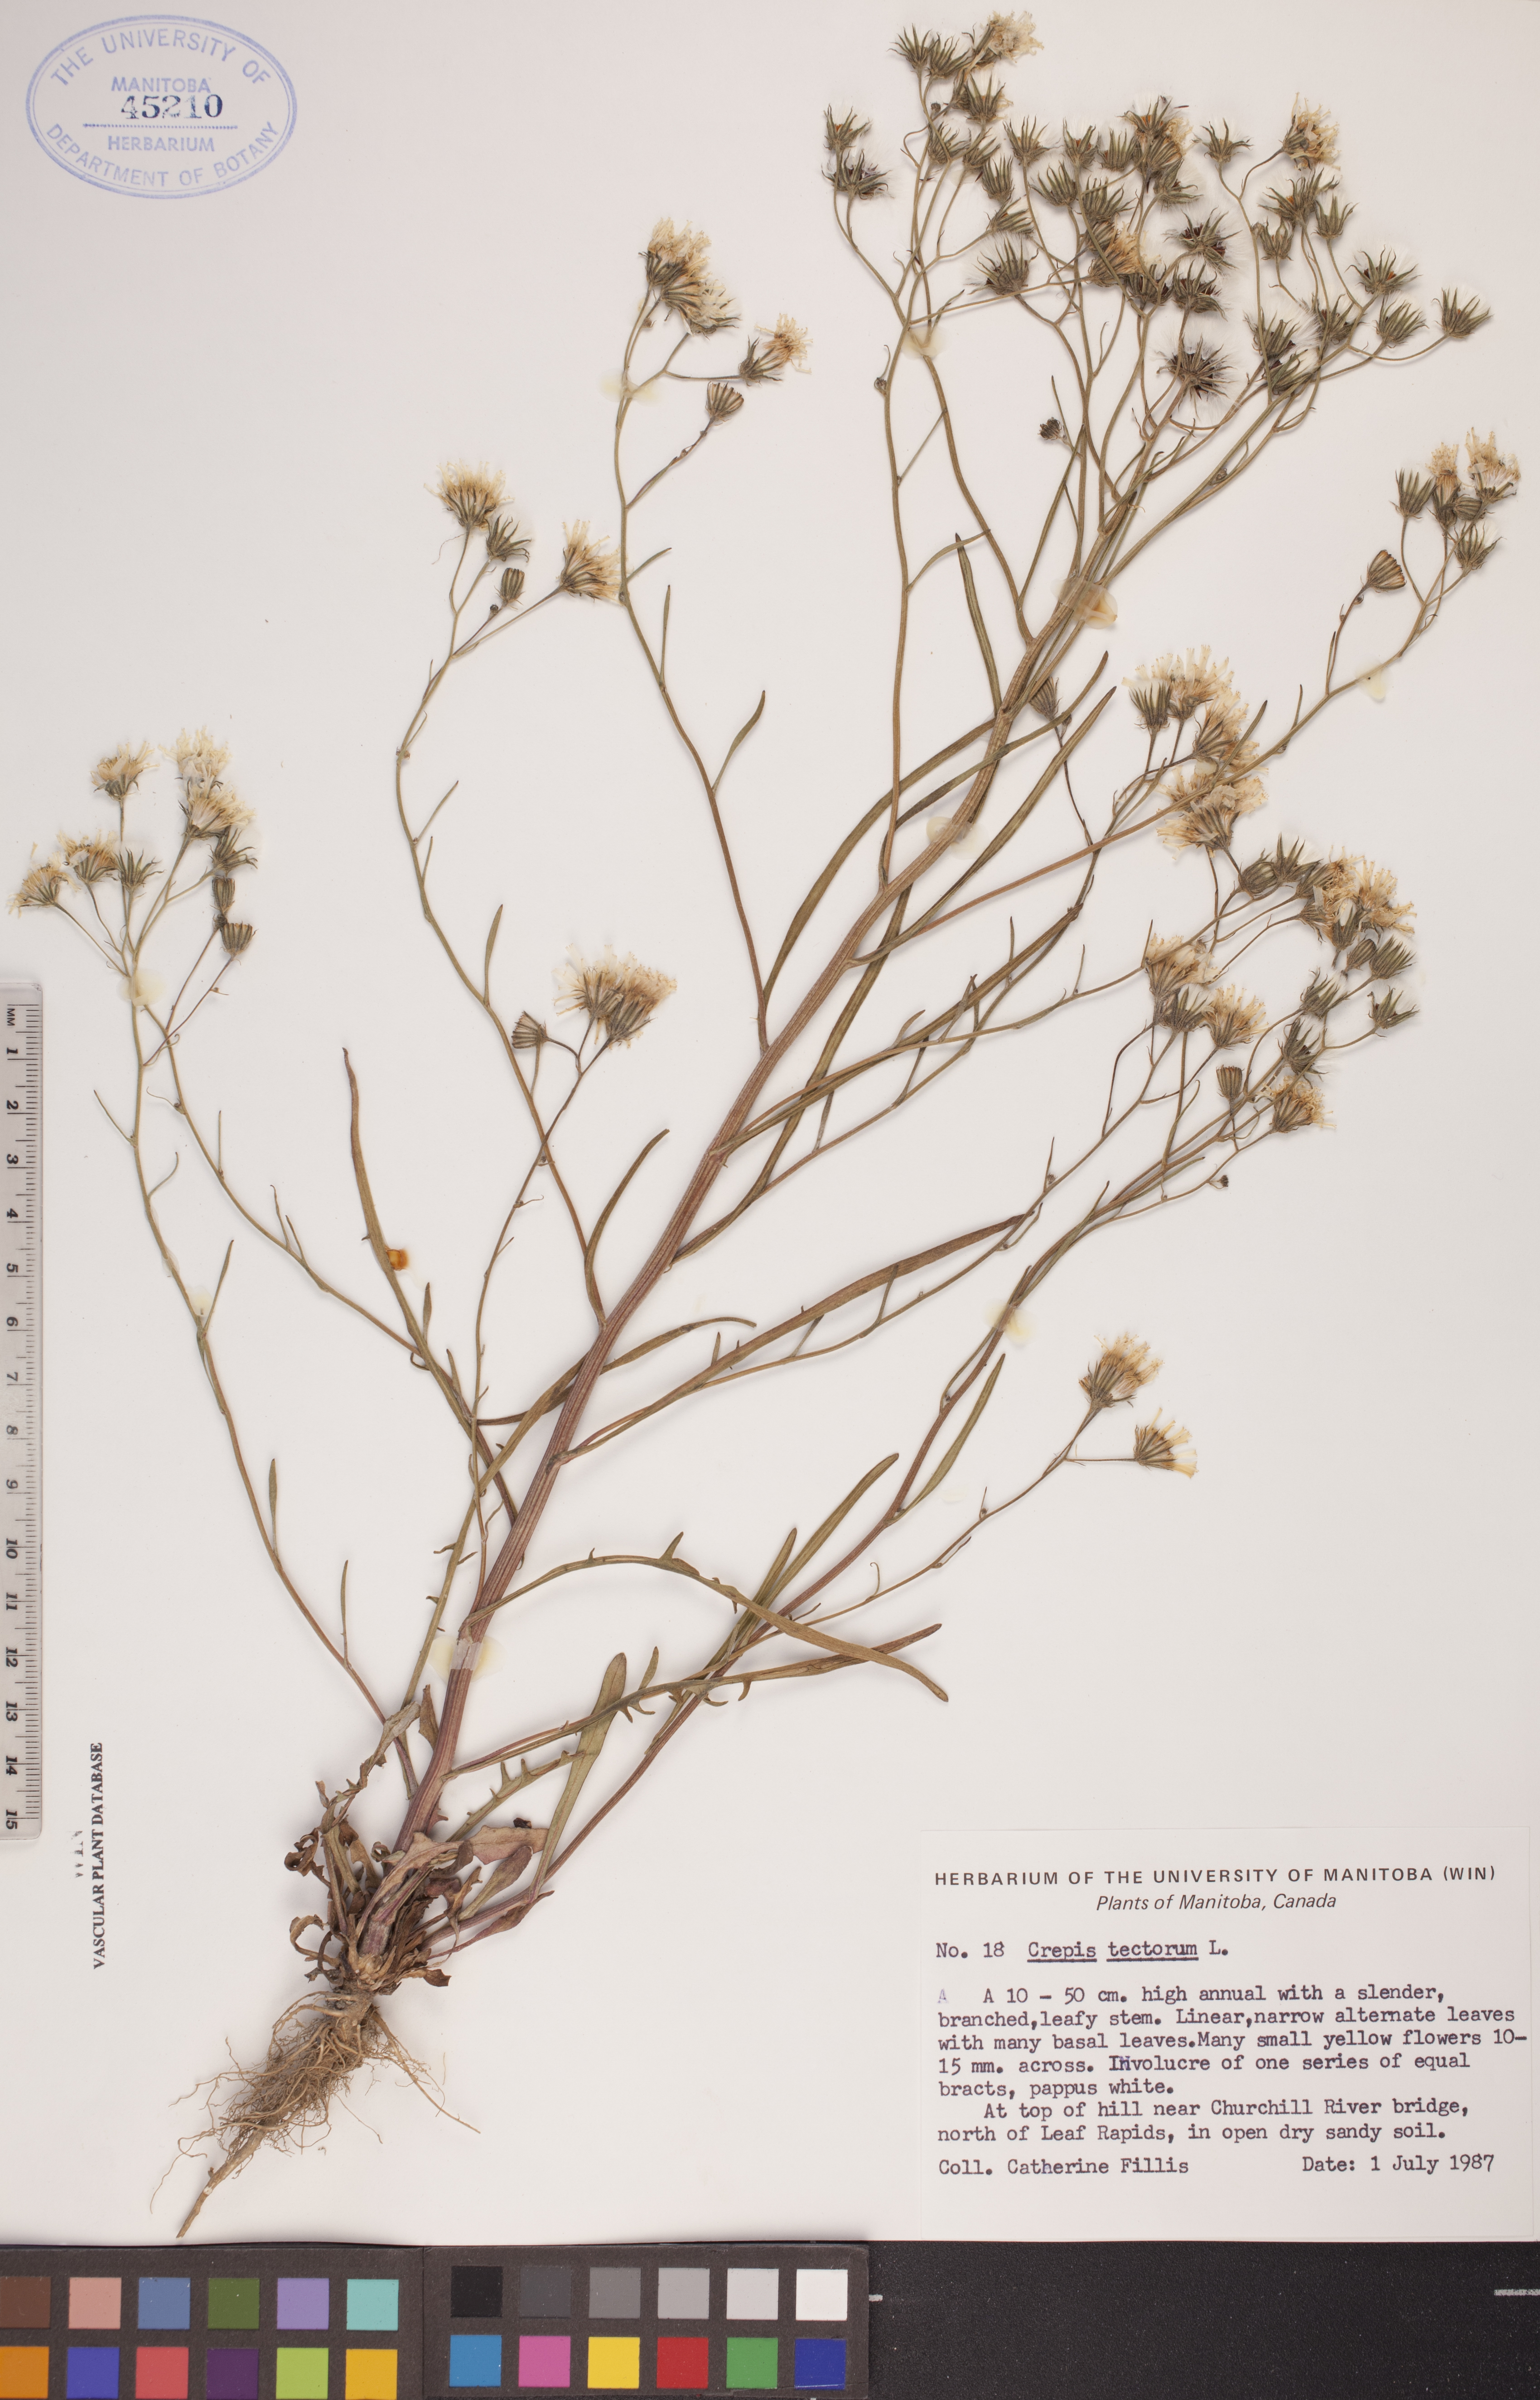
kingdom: Plantae
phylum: Tracheophyta
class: Magnoliopsida
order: Asterales
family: Asteraceae
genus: Crepis
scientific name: Crepis tectorum
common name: Narrow-leaved hawk's-beard
